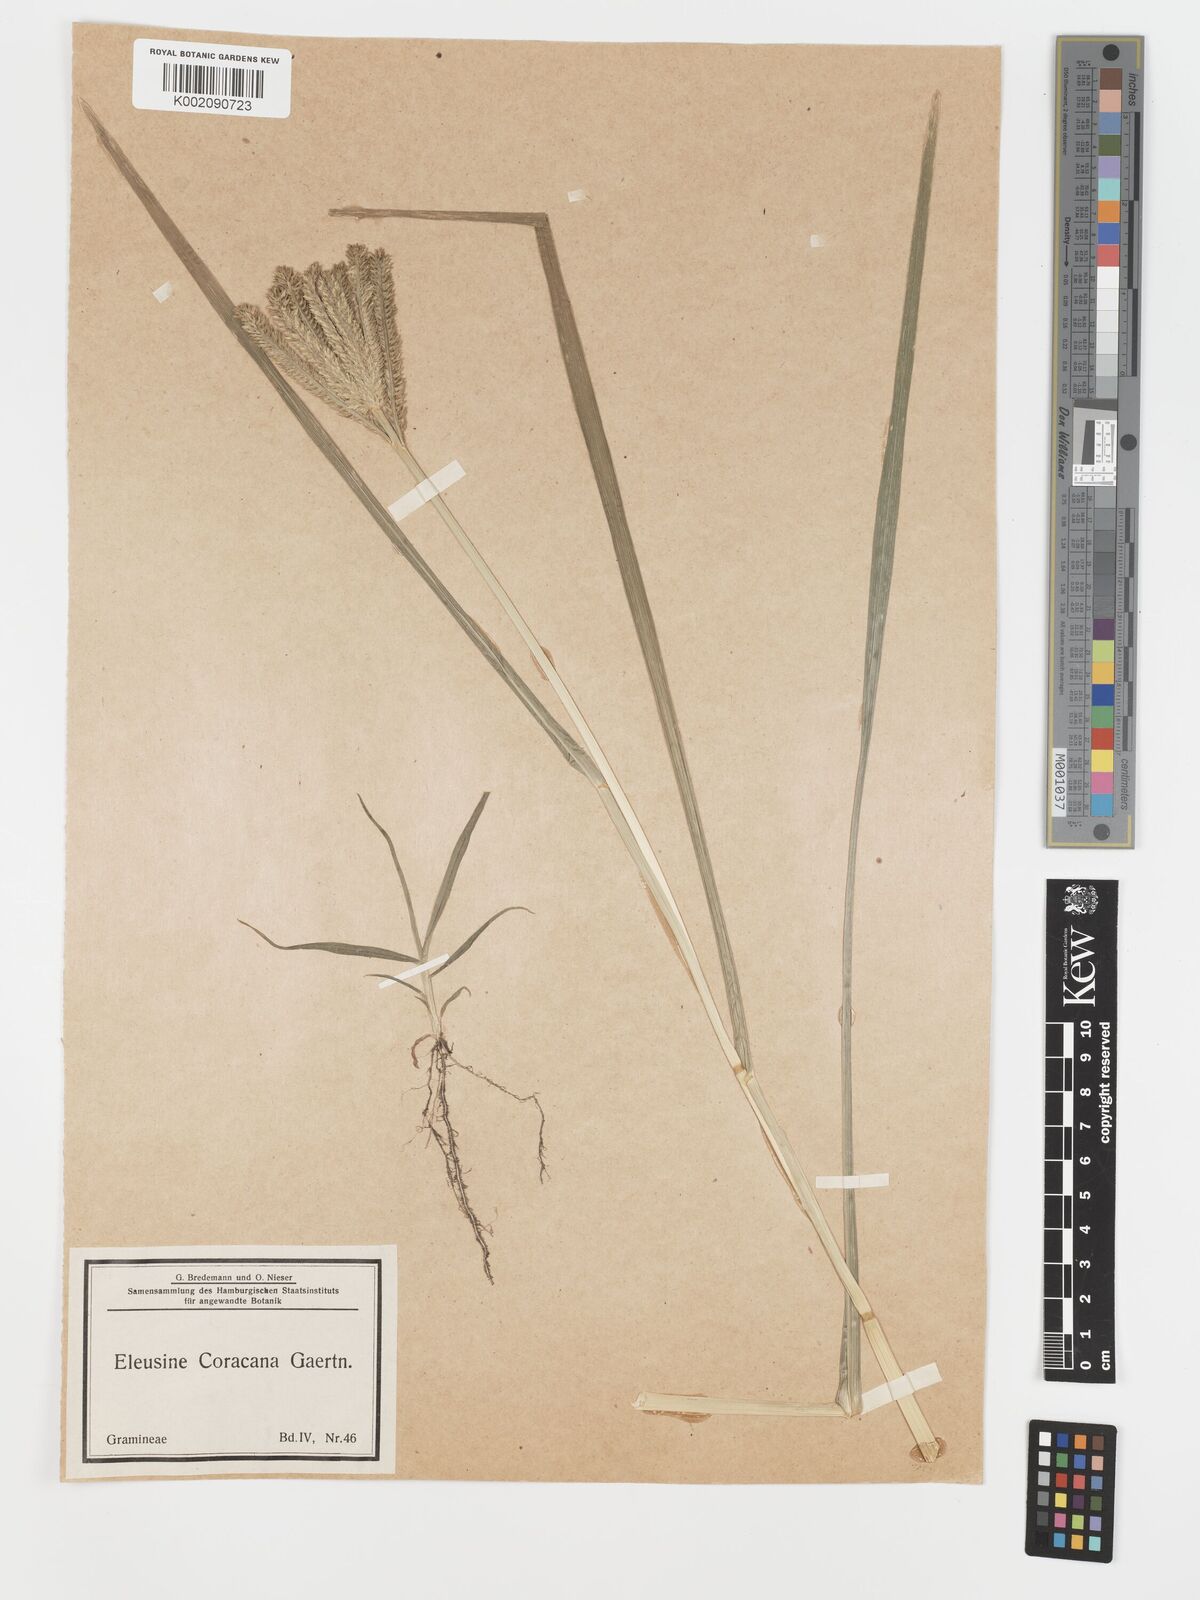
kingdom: Plantae
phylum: Tracheophyta
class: Liliopsida
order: Poales
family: Poaceae
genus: Eleusine
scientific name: Eleusine coracana
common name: Finger millet
